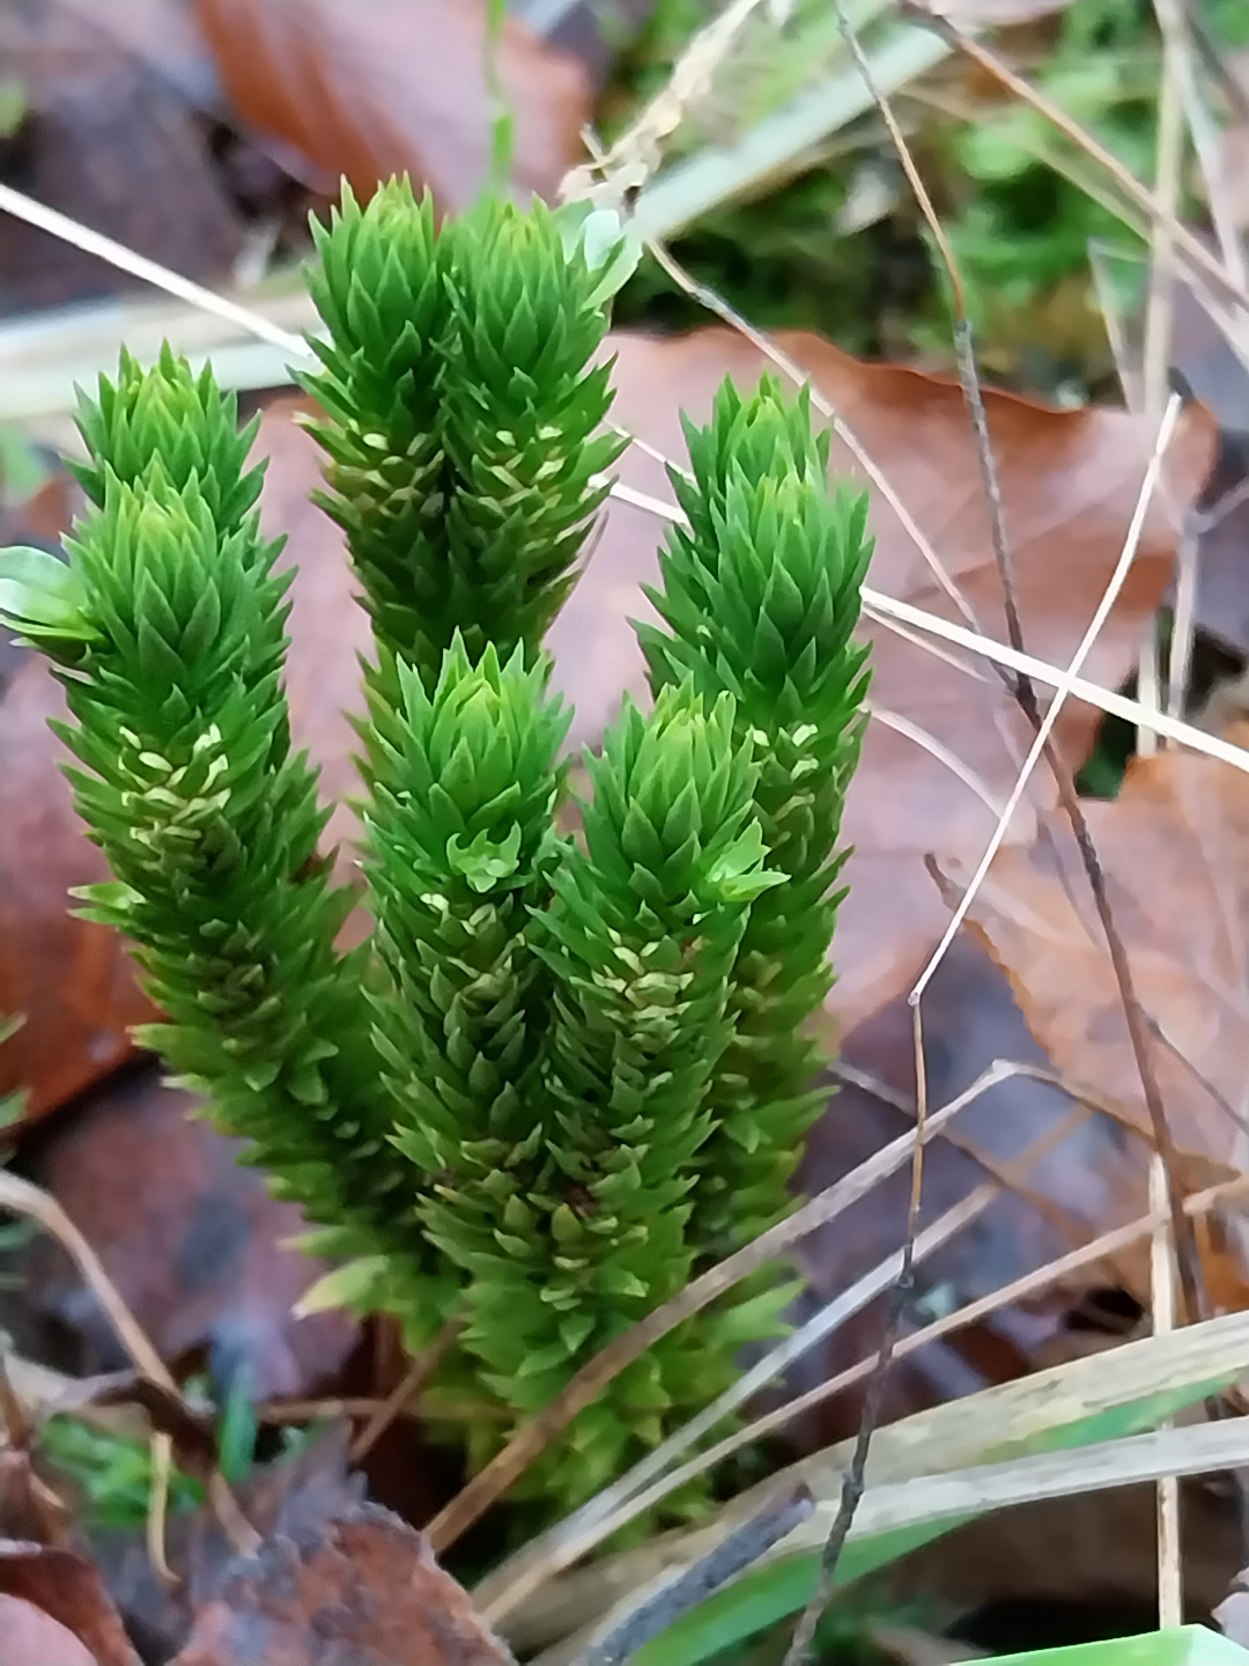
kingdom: Plantae
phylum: Tracheophyta
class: Lycopodiopsida
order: Lycopodiales
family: Lycopodiaceae
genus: Huperzia
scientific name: Huperzia selago
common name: Otteradet ulvefod
